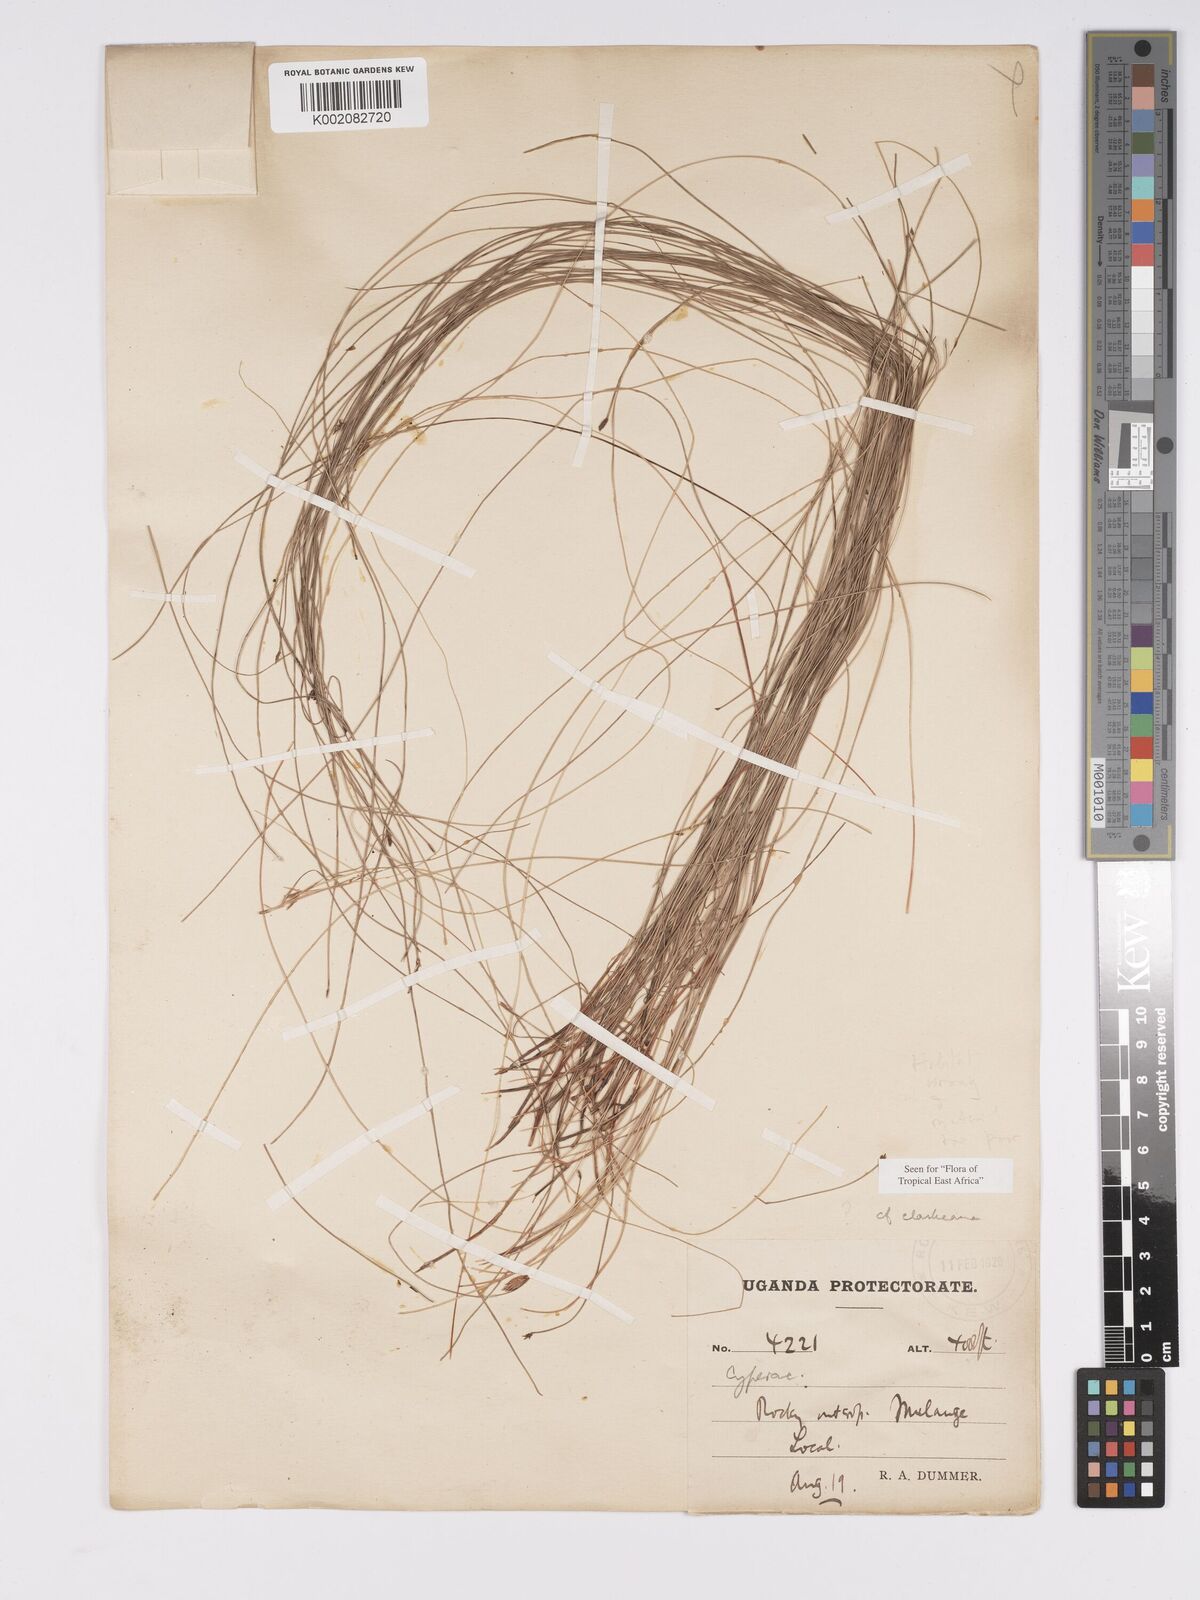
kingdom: Plantae
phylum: Tracheophyta
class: Liliopsida
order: Poales
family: Cyperaceae
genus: Bulbostylis
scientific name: Bulbostylis clarkeana
